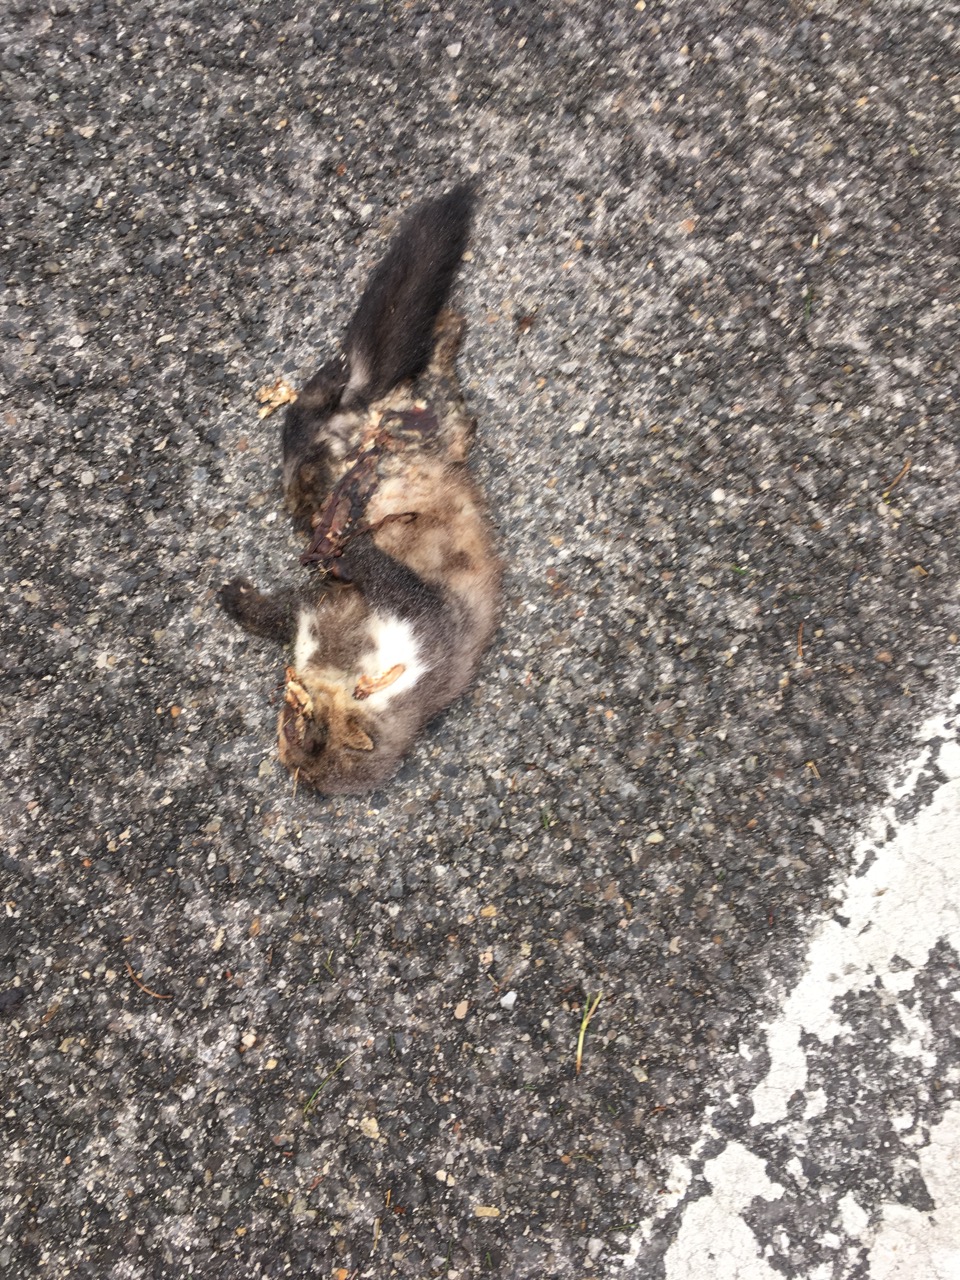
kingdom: Animalia
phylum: Chordata
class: Mammalia
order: Carnivora
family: Mustelidae
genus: Martes
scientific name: Martes foina
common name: Beech marten
